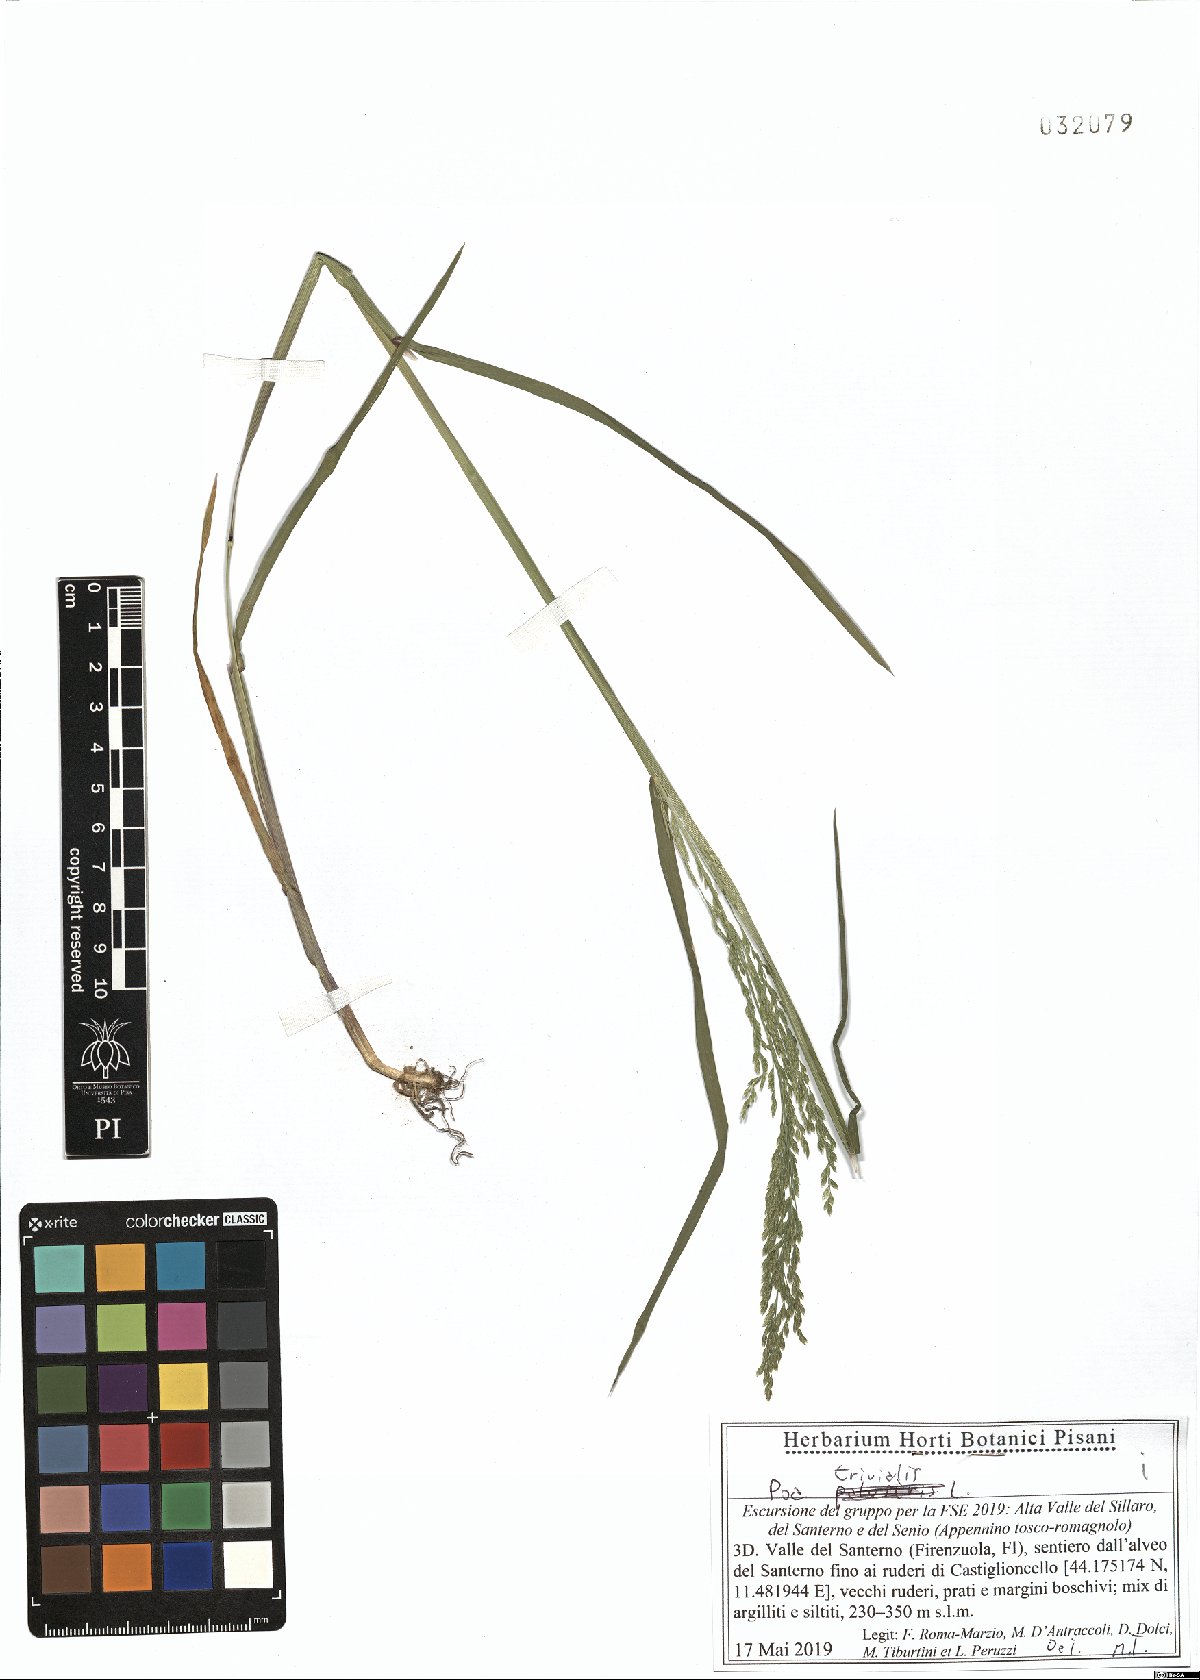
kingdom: Plantae
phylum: Tracheophyta
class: Liliopsida
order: Poales
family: Poaceae
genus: Poa
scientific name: Poa trivialis
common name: Rough bluegrass
